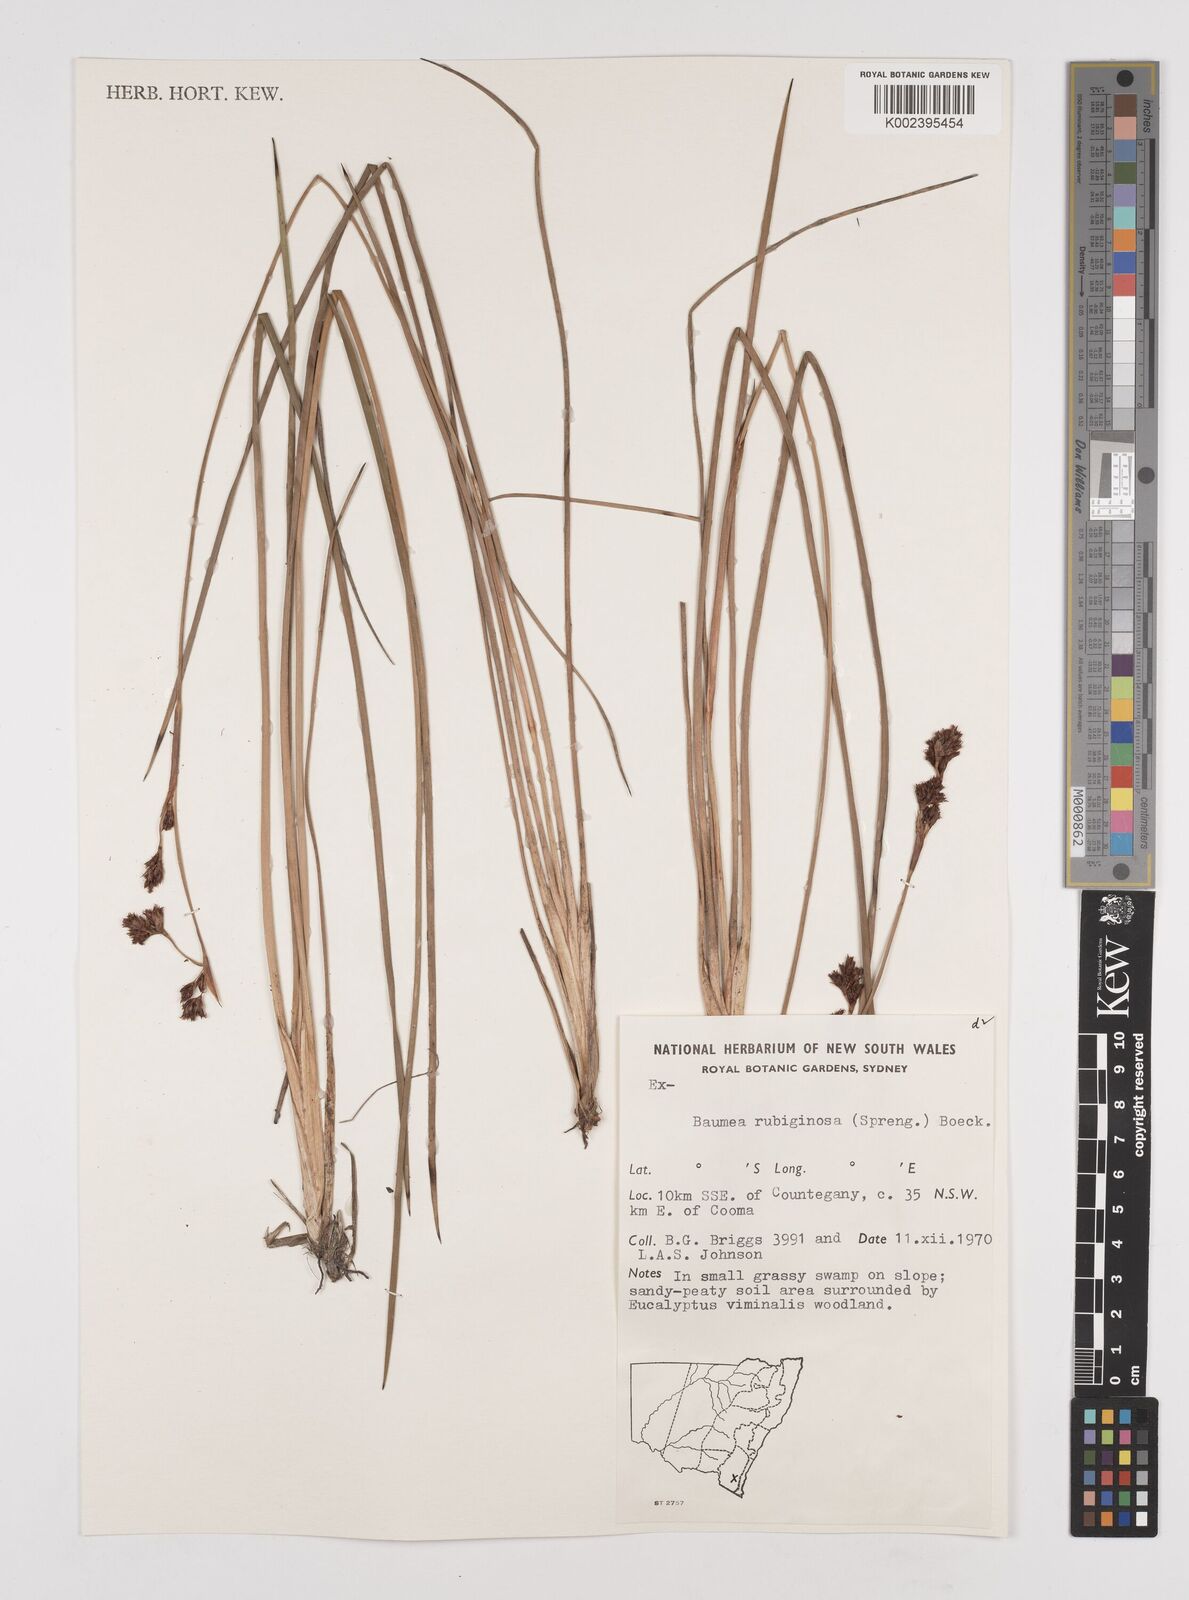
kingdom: Plantae
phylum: Tracheophyta
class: Liliopsida
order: Poales
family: Cyperaceae
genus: Machaerina
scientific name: Machaerina
